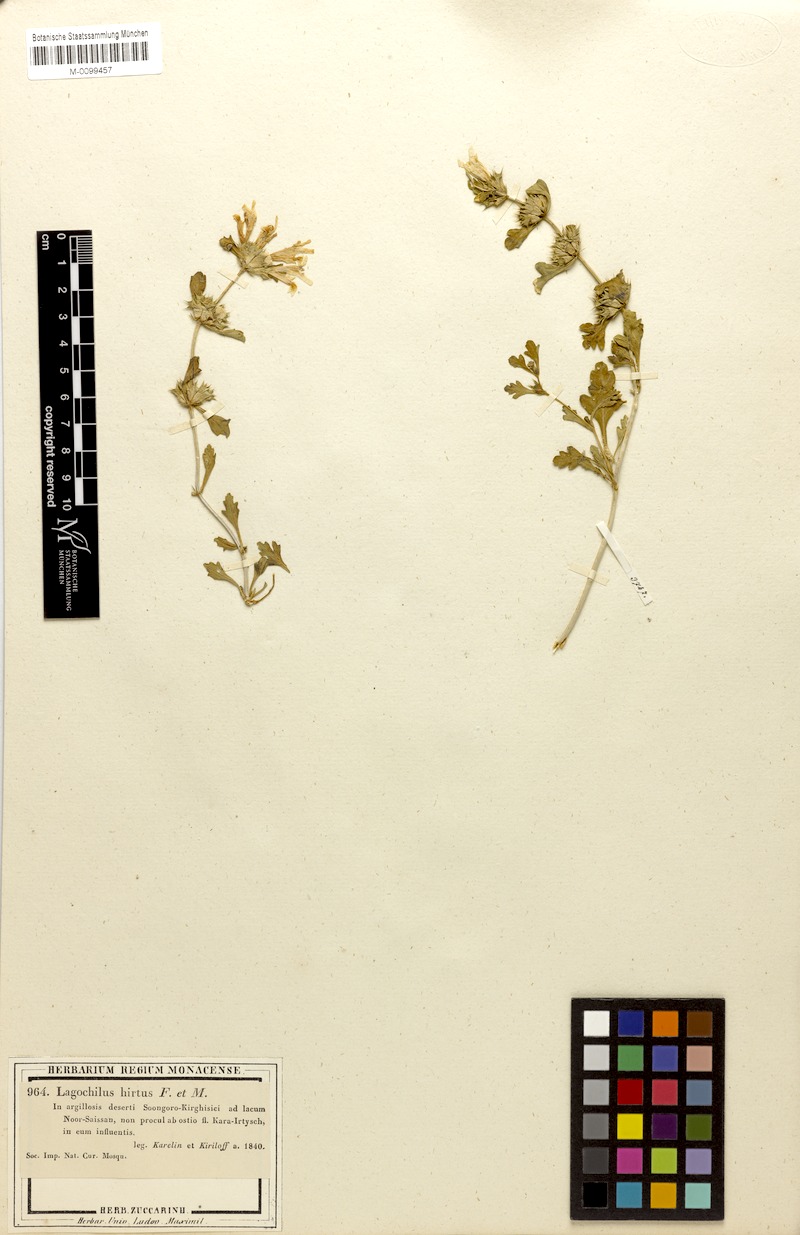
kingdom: Plantae
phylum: Tracheophyta
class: Magnoliopsida
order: Lamiales
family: Lamiaceae
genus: Lagochilus
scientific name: Lagochilus hirtus
